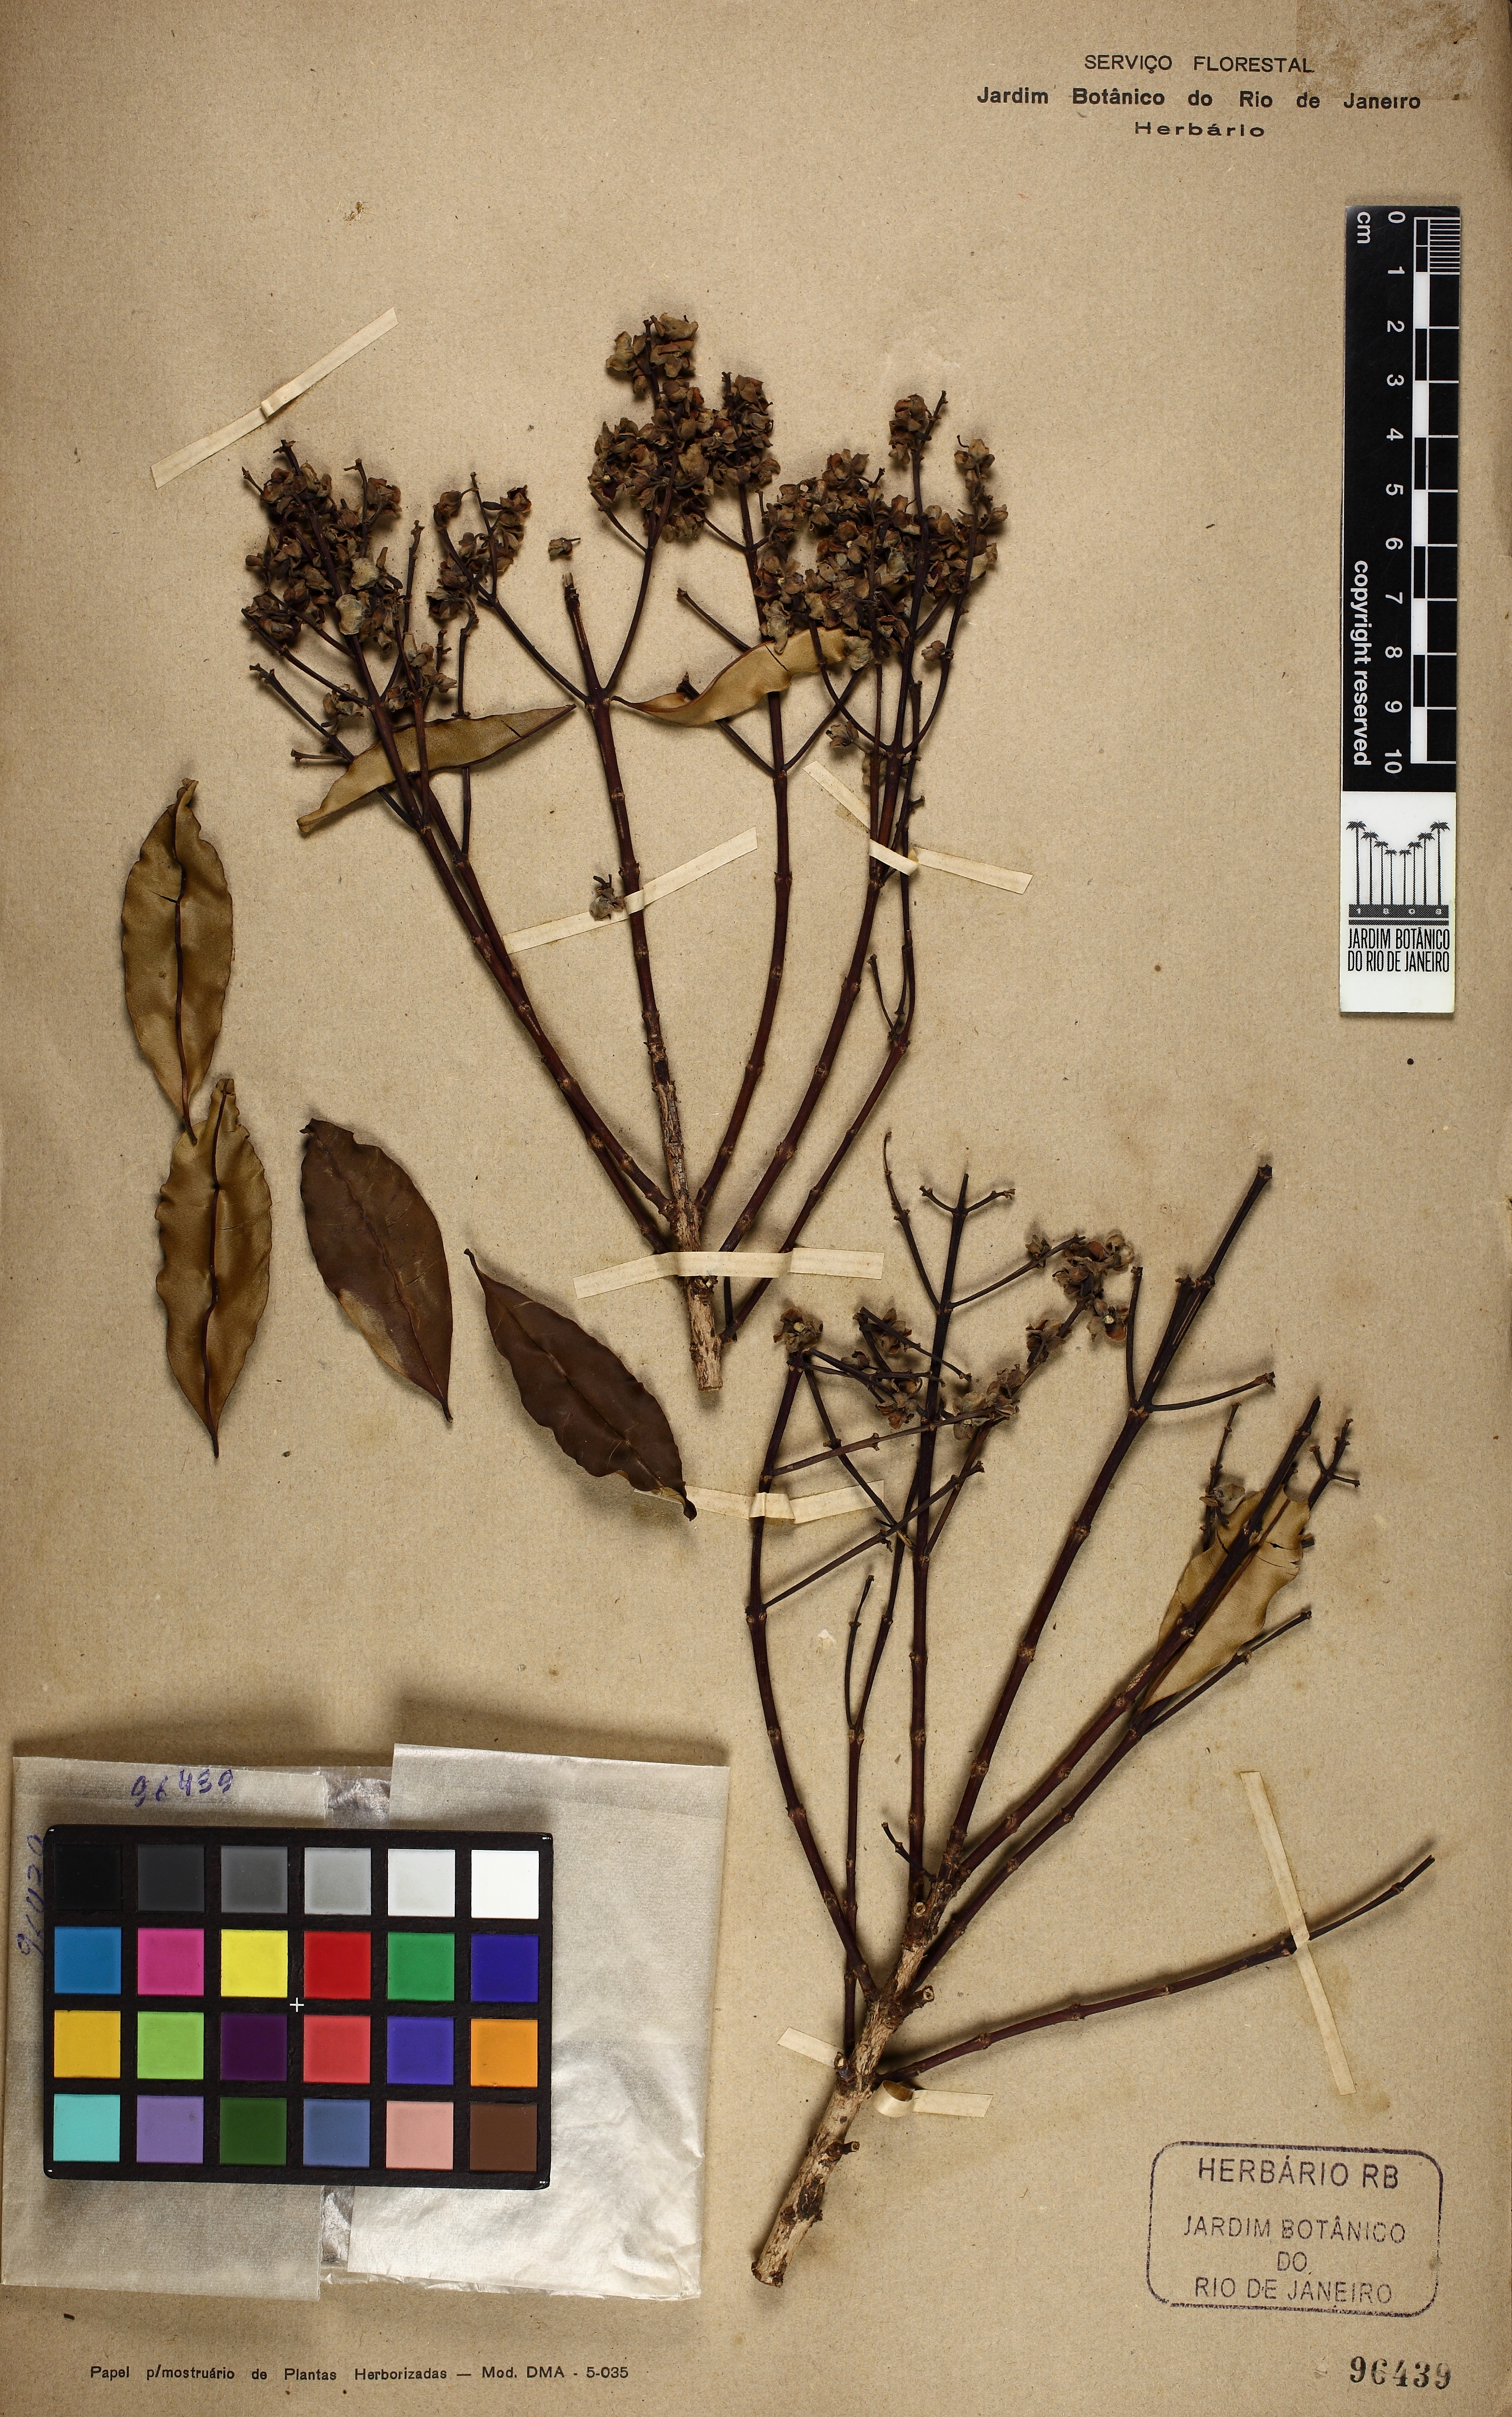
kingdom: Plantae
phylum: Tracheophyta
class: Magnoliopsida
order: Myrtales
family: Vochysiaceae
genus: Qualea
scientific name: Qualea coerulea
